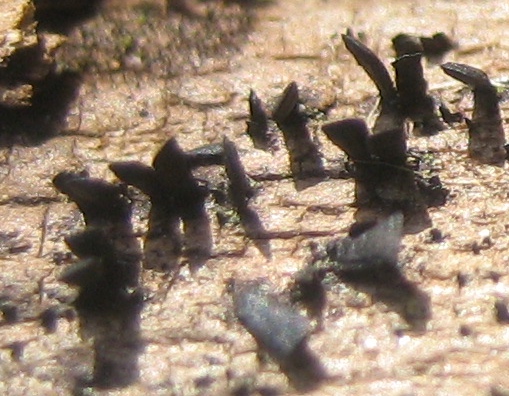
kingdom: Fungi
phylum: Ascomycota
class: Eurotiomycetes
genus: Glyphium
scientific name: Glyphium elatum
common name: kuløkse
